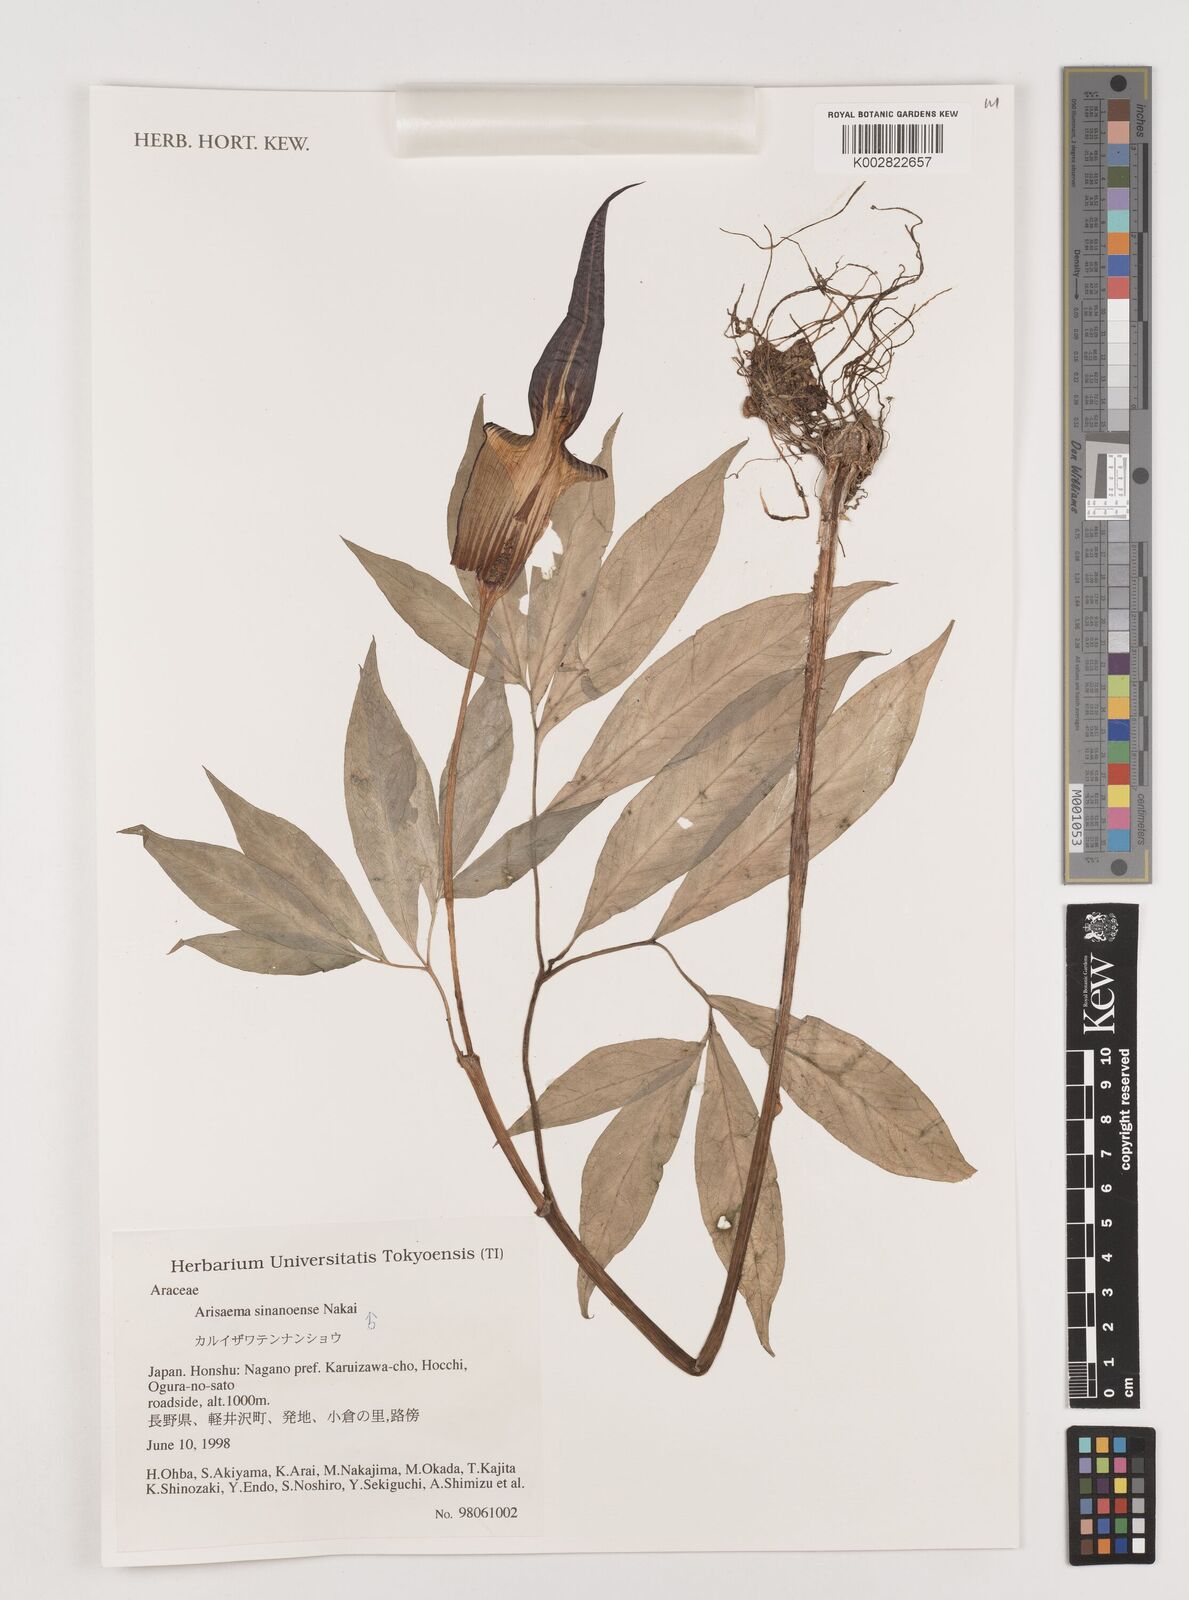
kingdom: Plantae
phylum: Tracheophyta
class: Liliopsida
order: Alismatales
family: Araceae
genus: Arisaema
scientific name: Arisaema serratum
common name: Japanese arisaema
